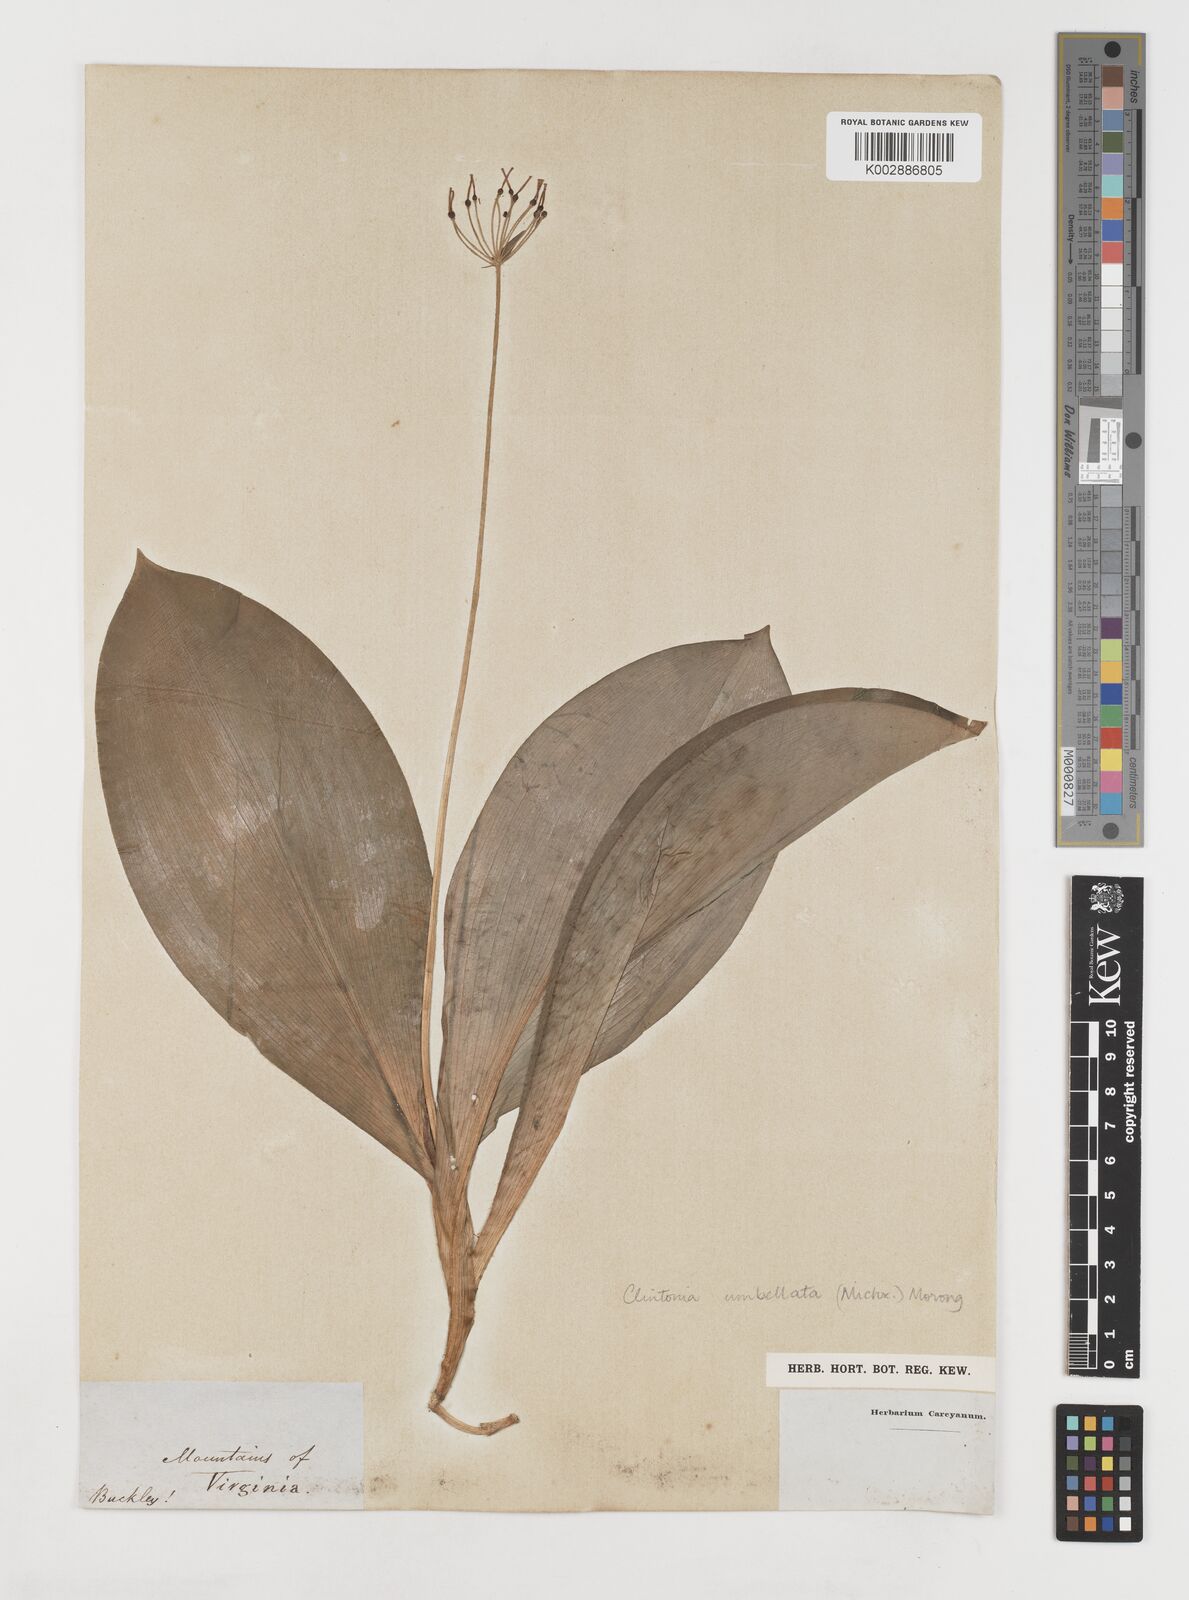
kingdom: Plantae
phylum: Tracheophyta
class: Liliopsida
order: Liliales
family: Liliaceae
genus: Clintonia
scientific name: Clintonia umbellulata
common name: Speckle wood-lily
